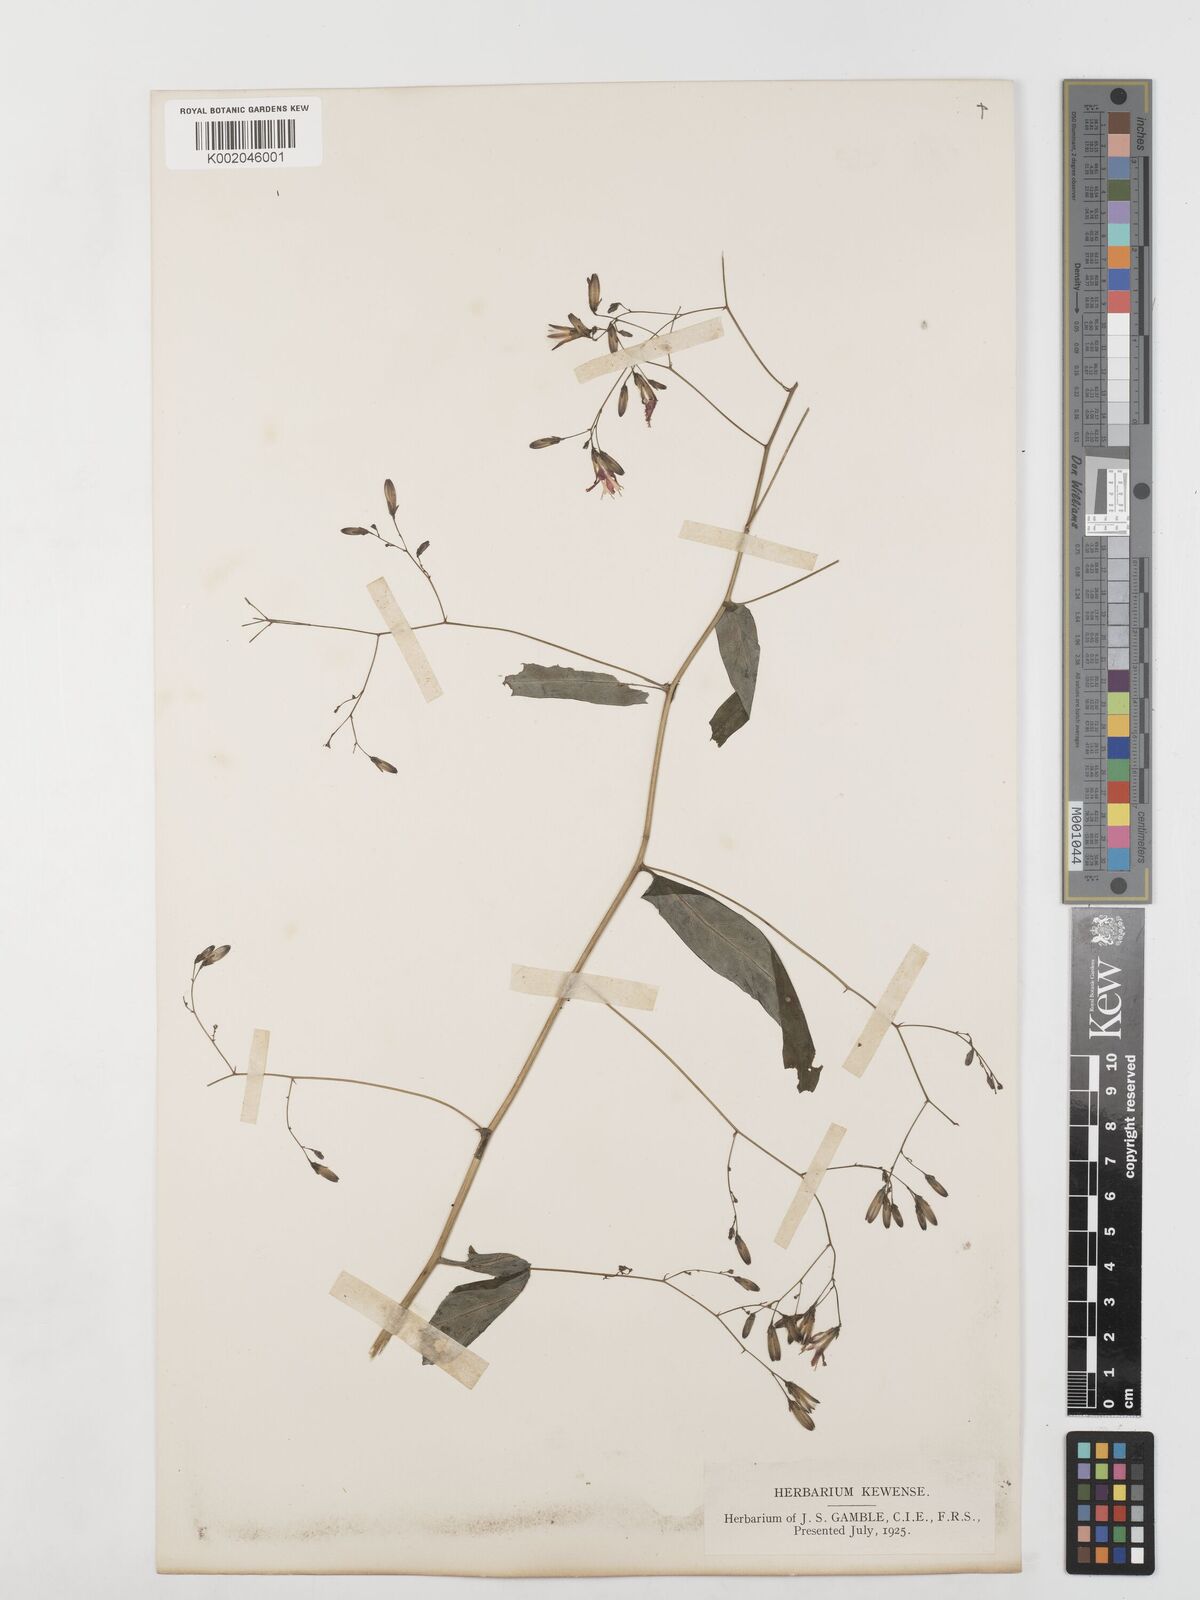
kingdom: Plantae
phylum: Tracheophyta
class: Magnoliopsida
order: Asterales
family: Asteraceae
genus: Prenanthes
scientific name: Prenanthes purpurea
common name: Purple lettuce
